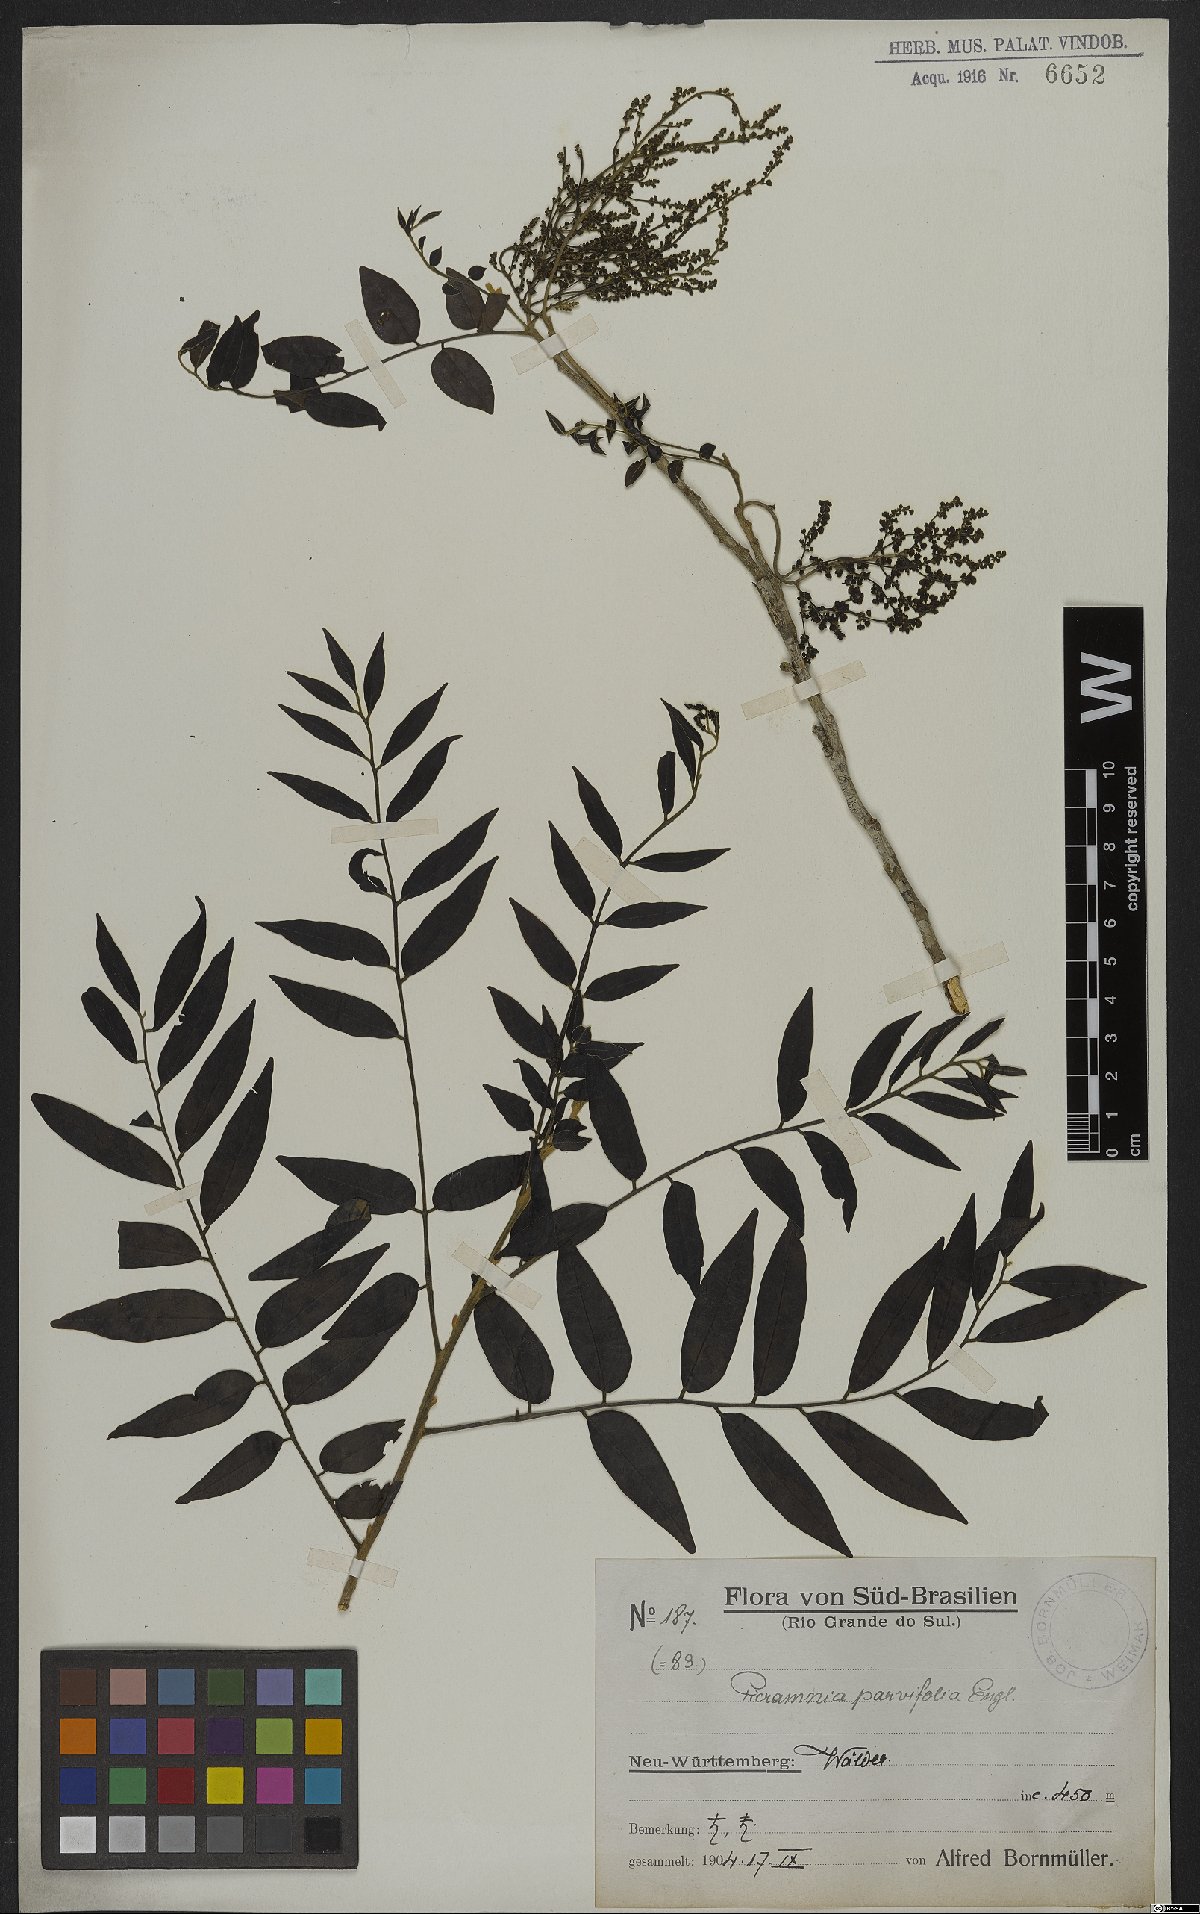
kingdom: Plantae
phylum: Tracheophyta
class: Magnoliopsida
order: Picramniales
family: Picramniaceae
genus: Picramnia
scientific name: Picramnia parvifolia
